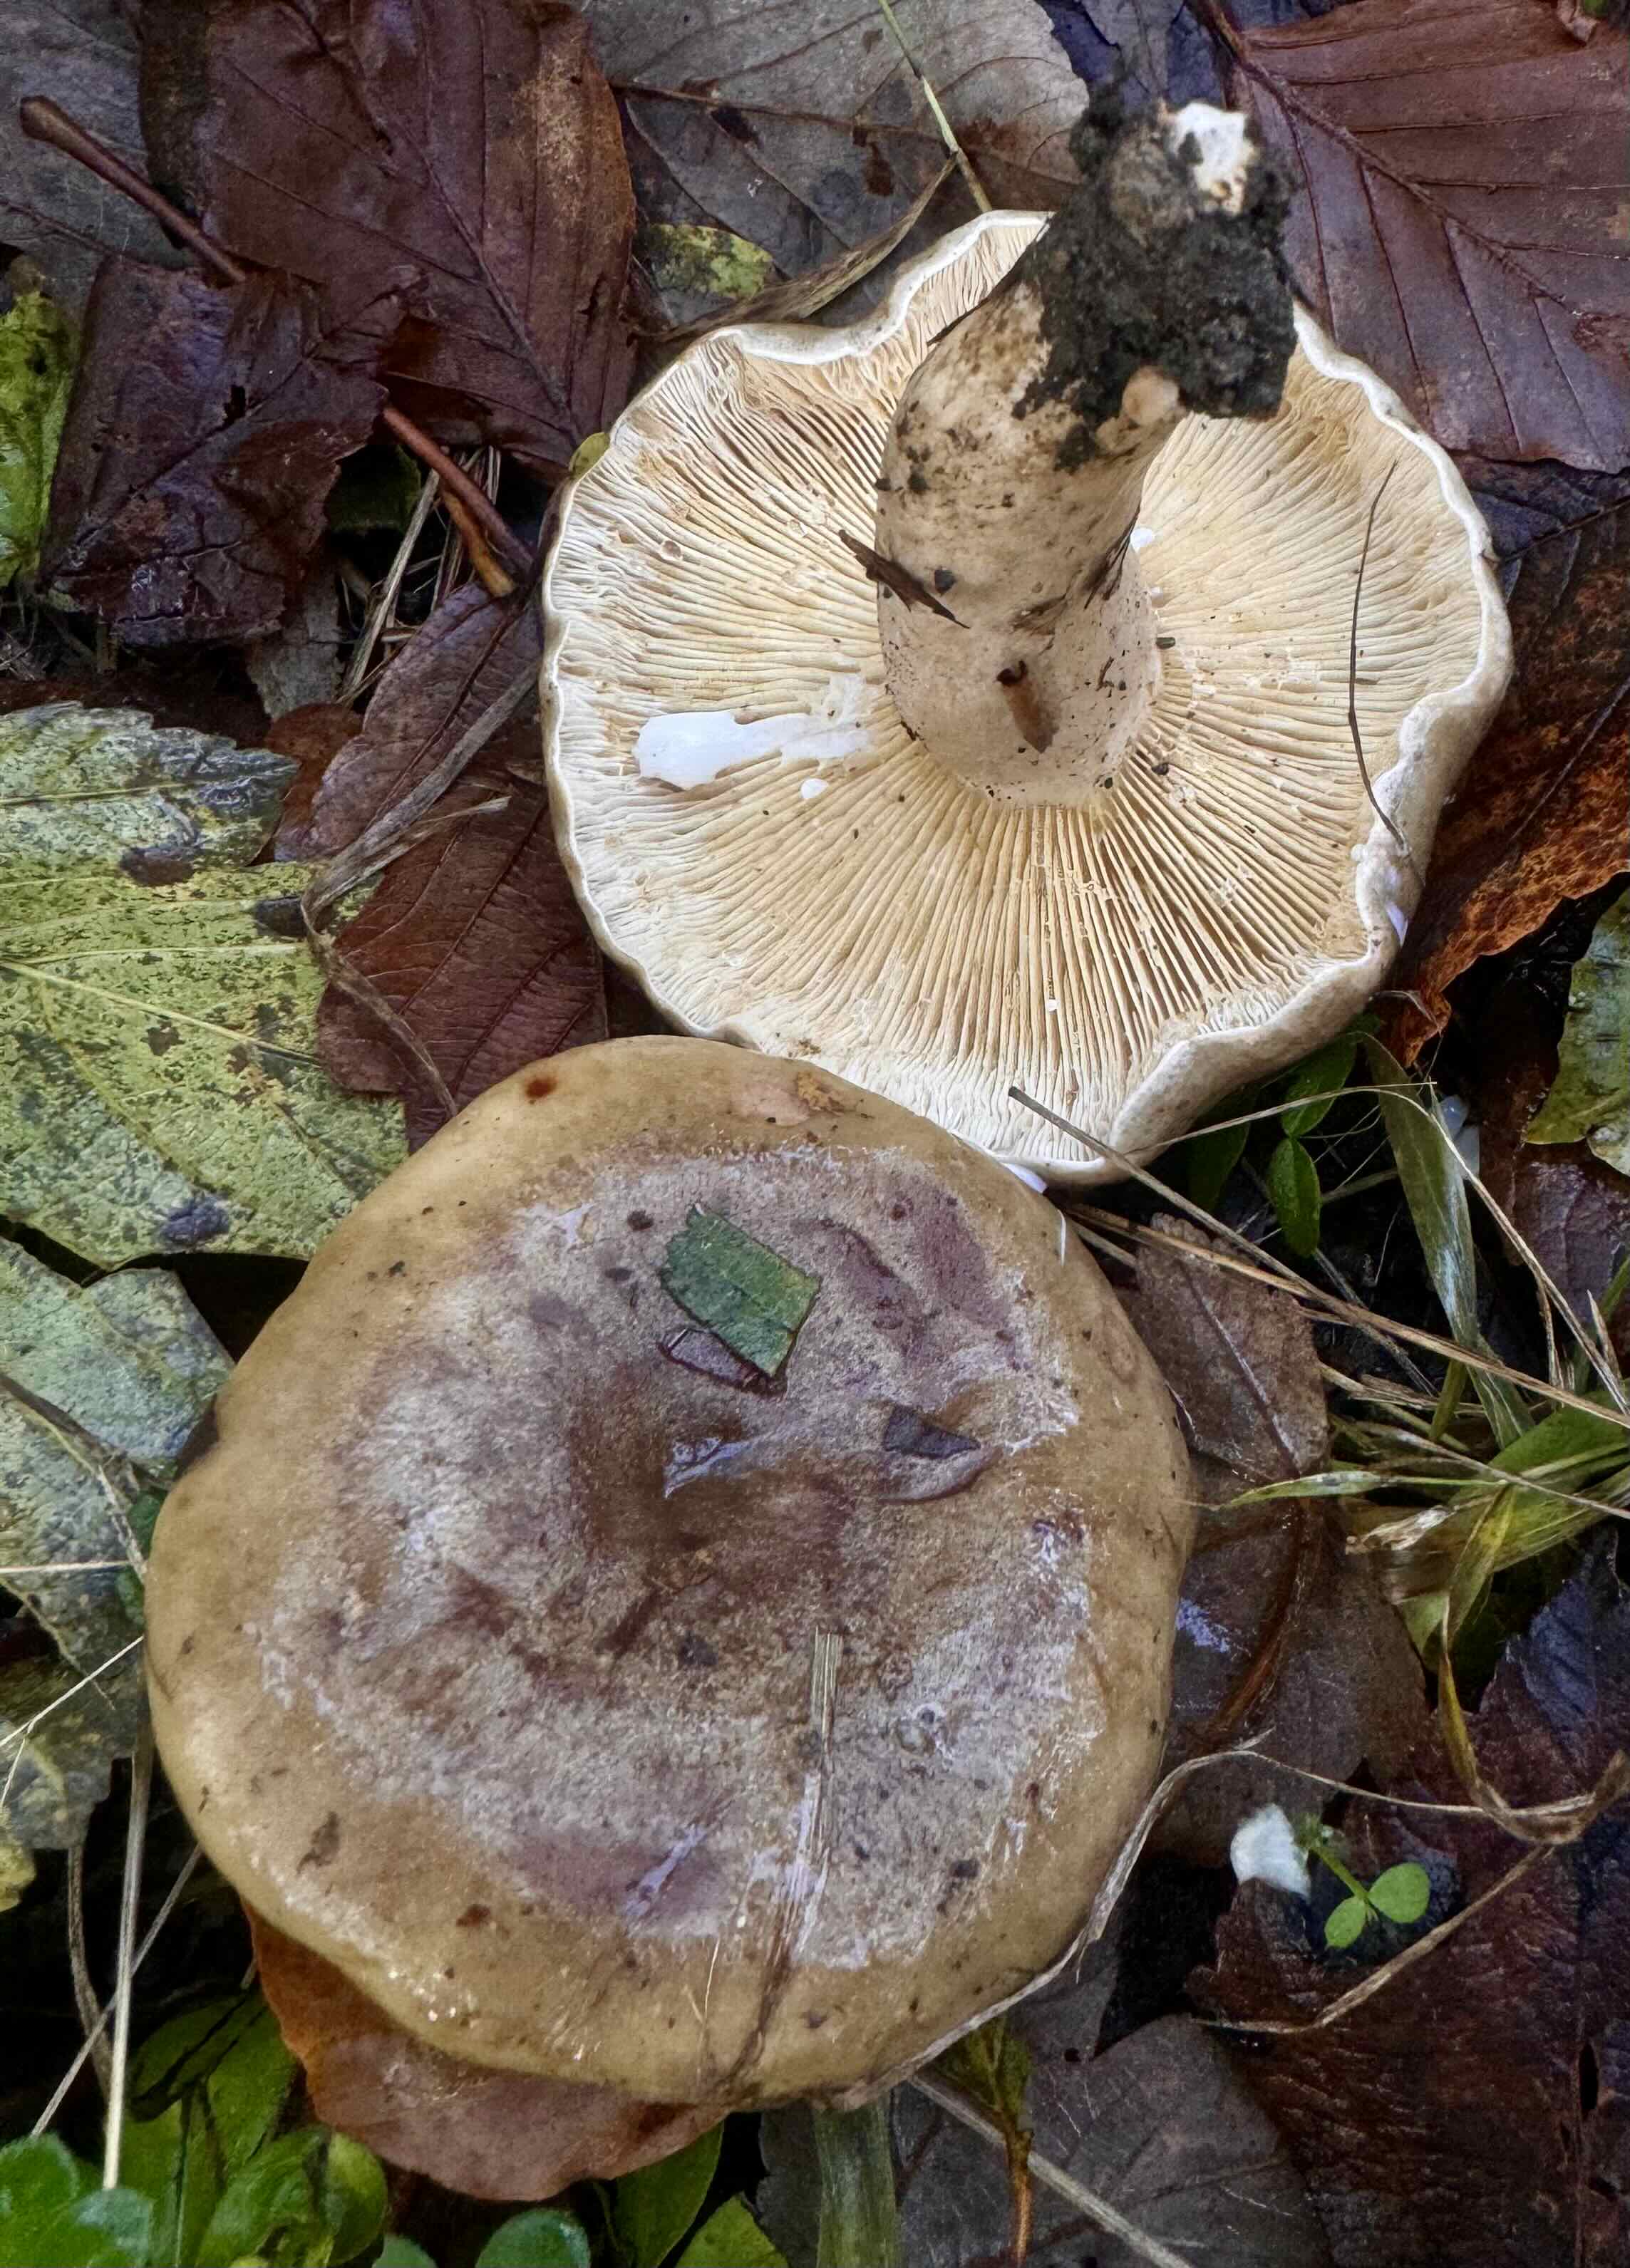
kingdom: Fungi
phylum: Basidiomycota
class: Agaricomycetes
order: Russulales
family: Russulaceae
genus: Lactarius
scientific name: Lactarius fluens
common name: lysrandet mælkehat
